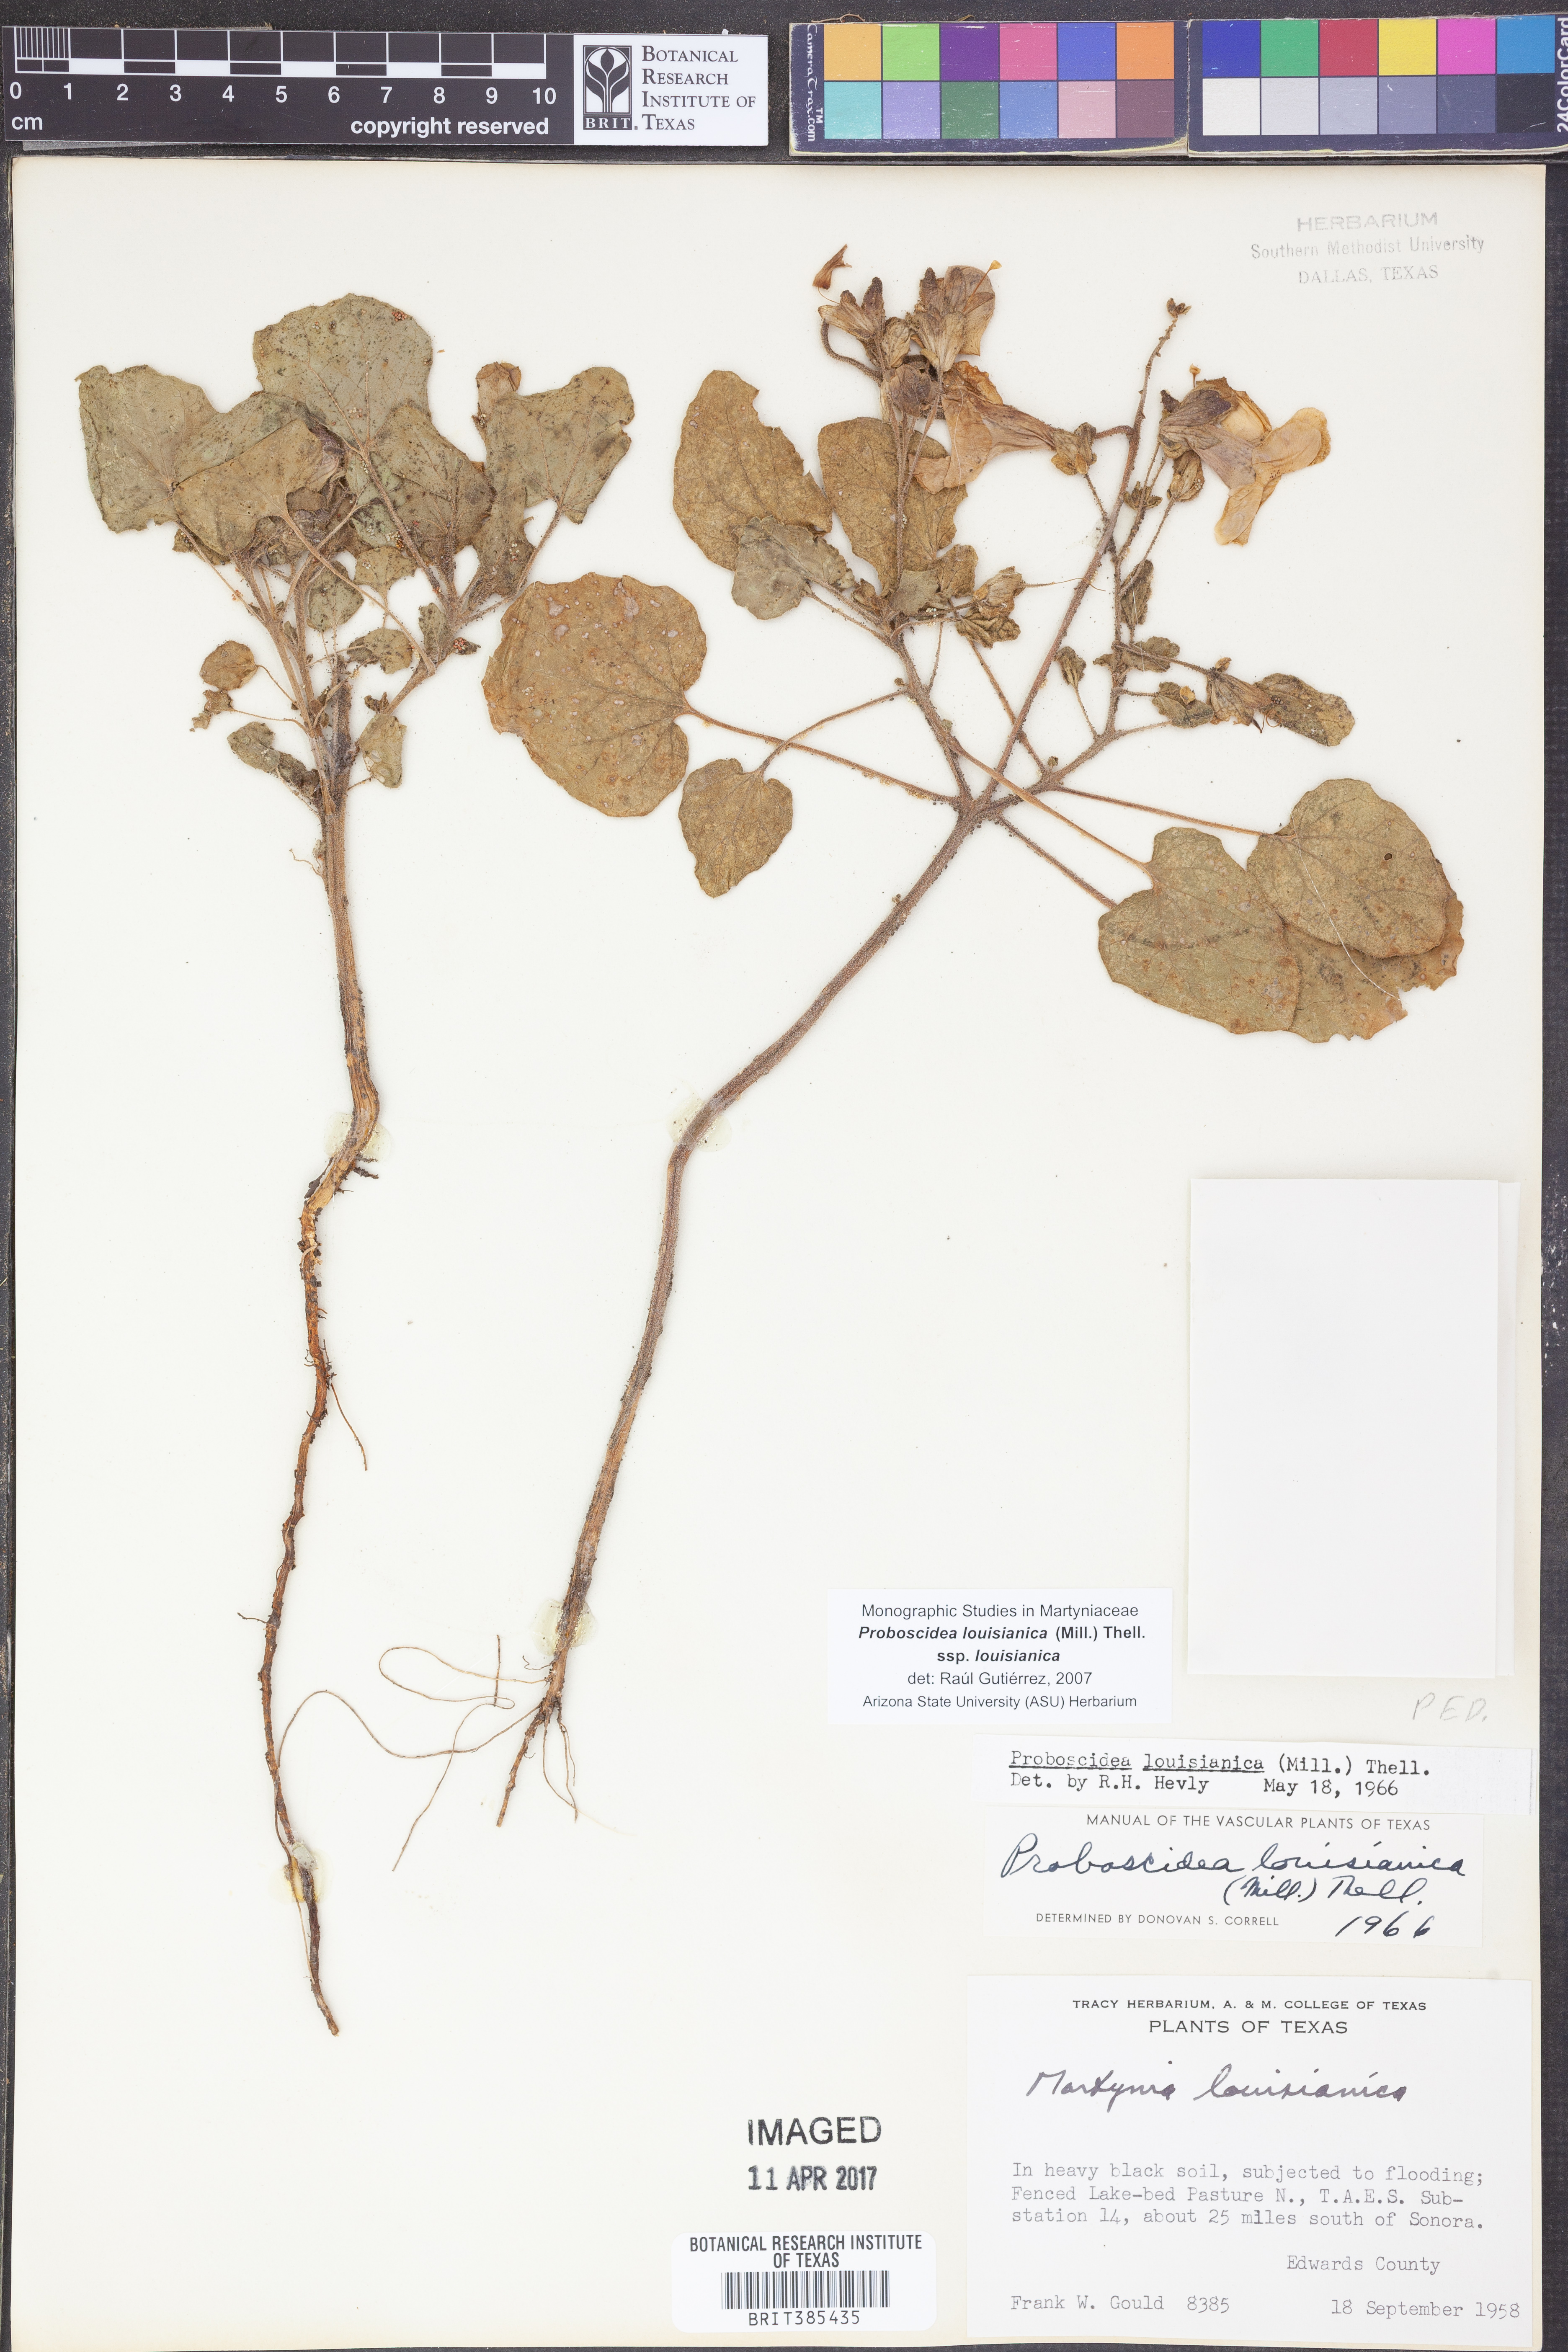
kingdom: Plantae
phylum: Tracheophyta
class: Magnoliopsida
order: Lamiales
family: Martyniaceae
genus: Proboscidea
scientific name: Proboscidea louisianica
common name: Elephant tusks
